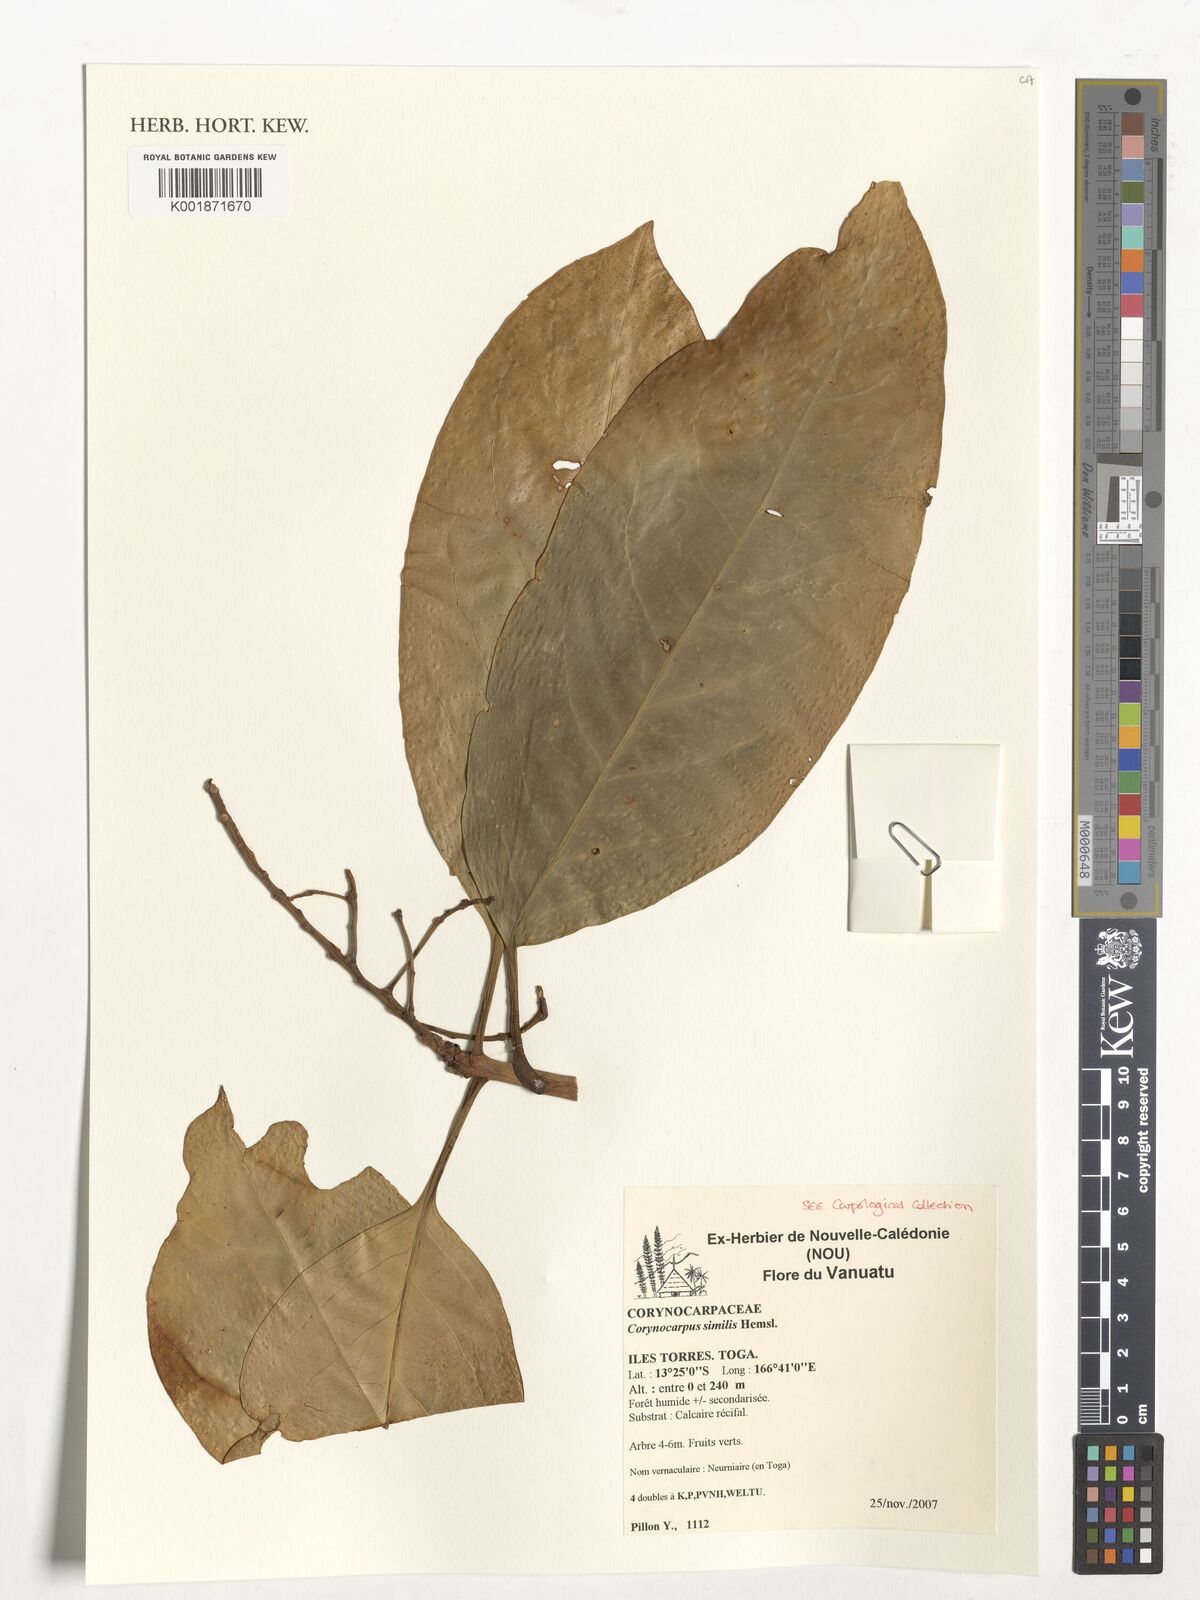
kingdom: Plantae
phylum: Tracheophyta
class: Magnoliopsida
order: Cucurbitales
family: Corynocarpaceae
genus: Corynocarpus
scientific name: Corynocarpus similis
